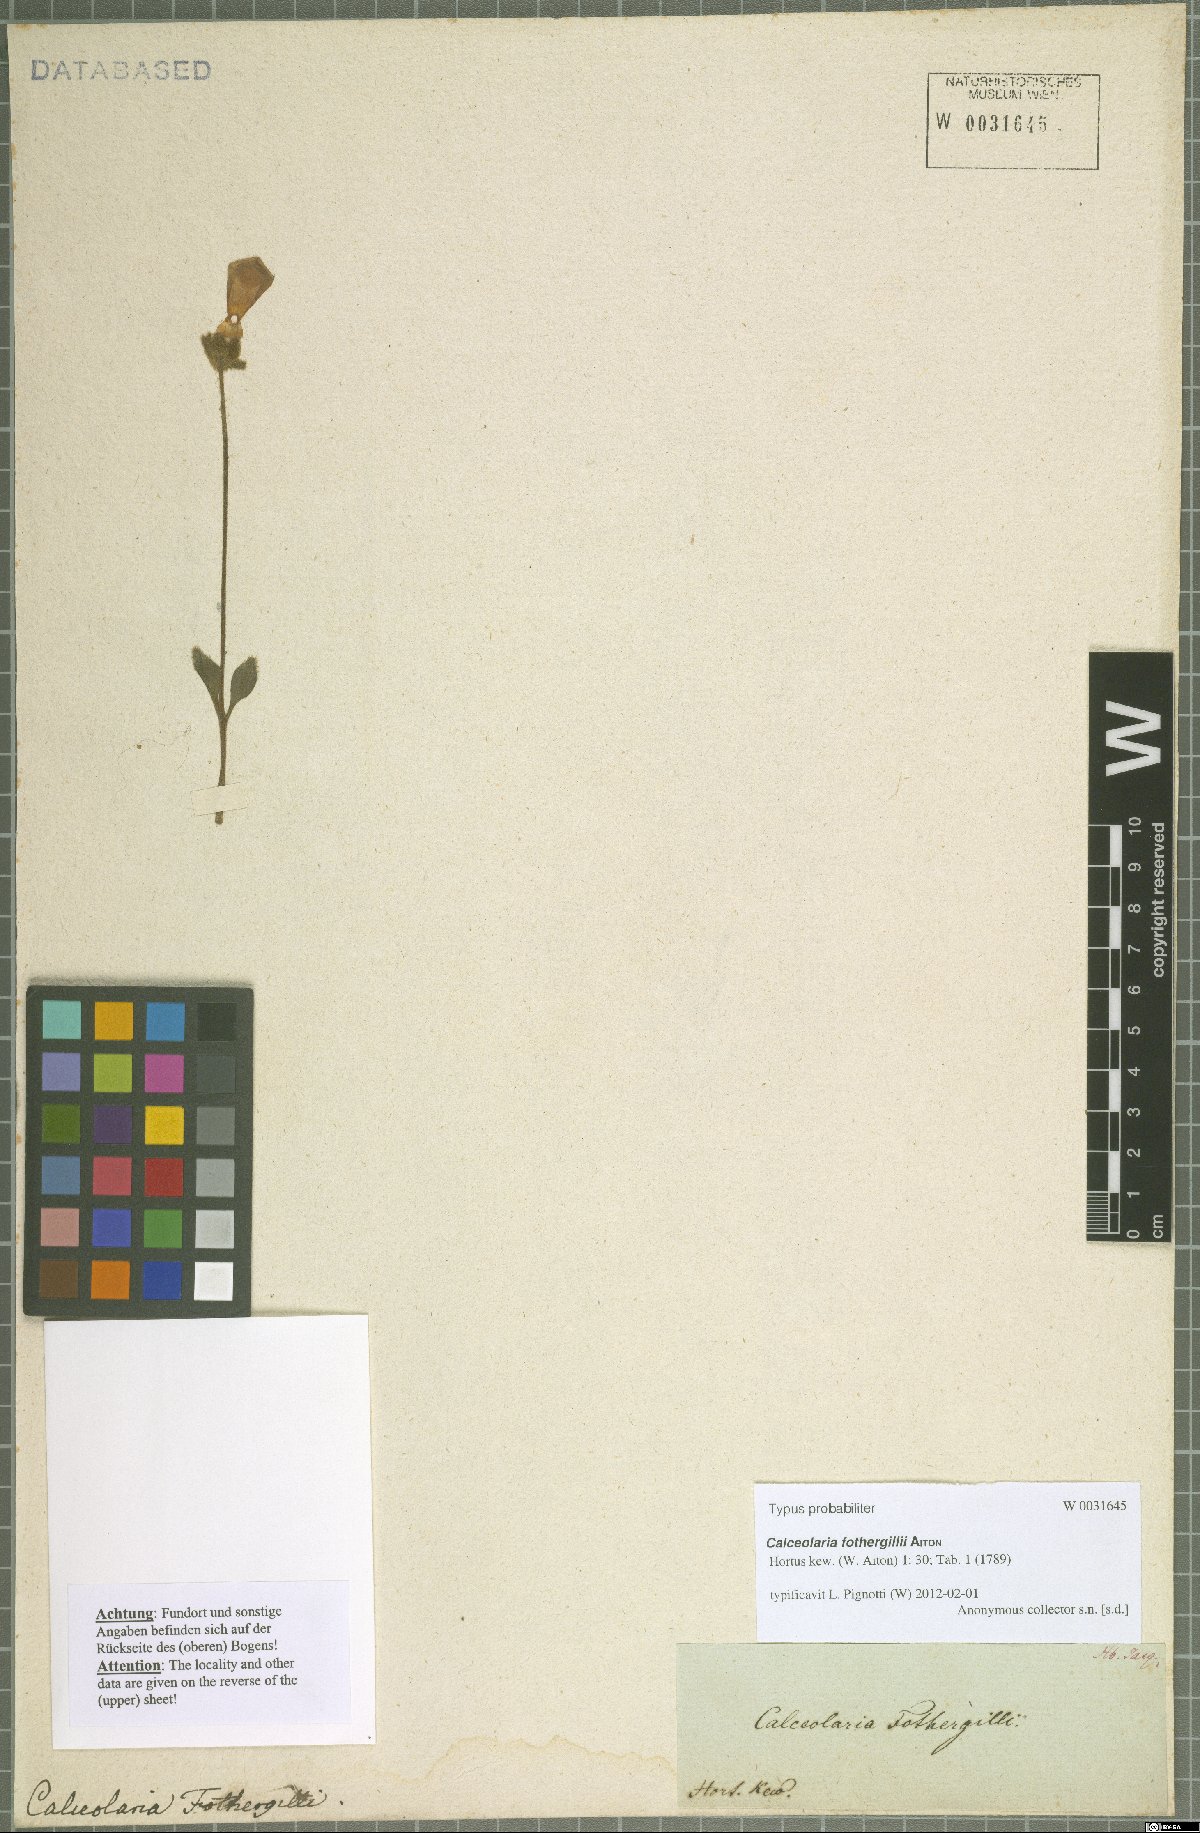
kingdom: Plantae
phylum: Tracheophyta
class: Magnoliopsida
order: Lamiales
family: Calceolariaceae
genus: Calceolaria
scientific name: Calceolaria fothergillii
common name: Lady's slipper
